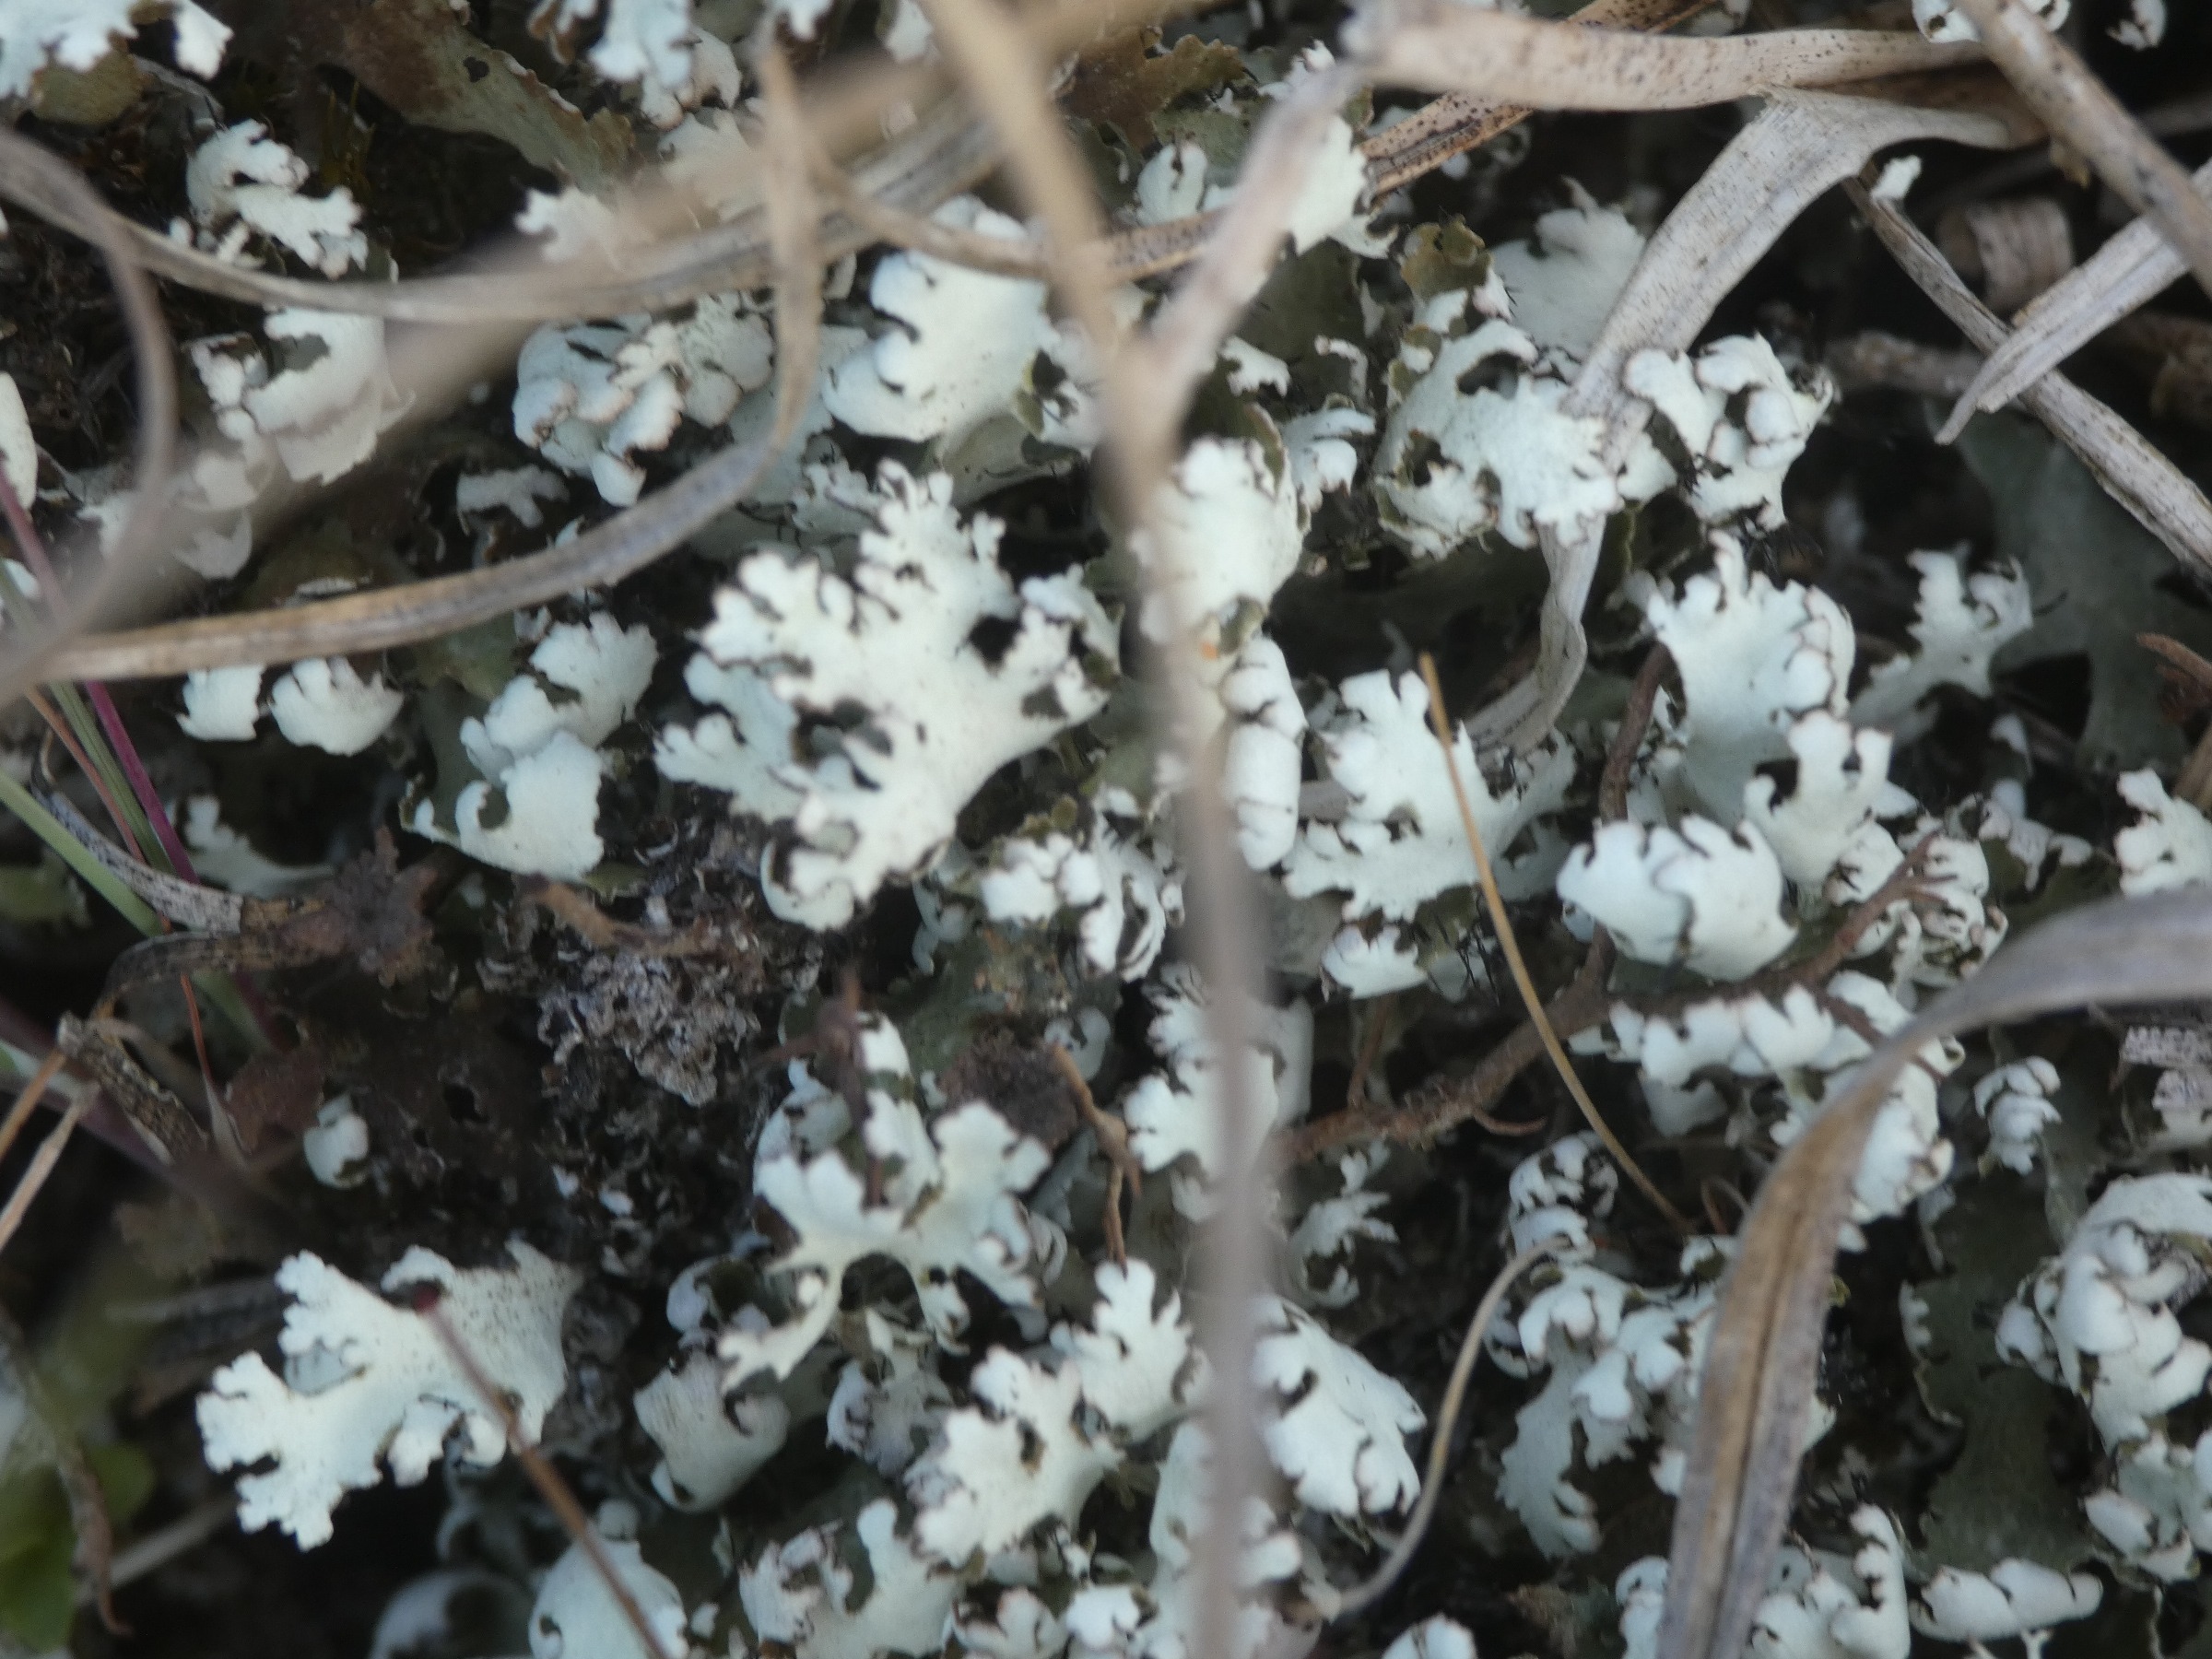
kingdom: Fungi
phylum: Ascomycota
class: Lecanoromycetes
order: Lecanorales
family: Cladoniaceae
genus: Cladonia
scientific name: Cladonia foliacea
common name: Fliget bægerlav
